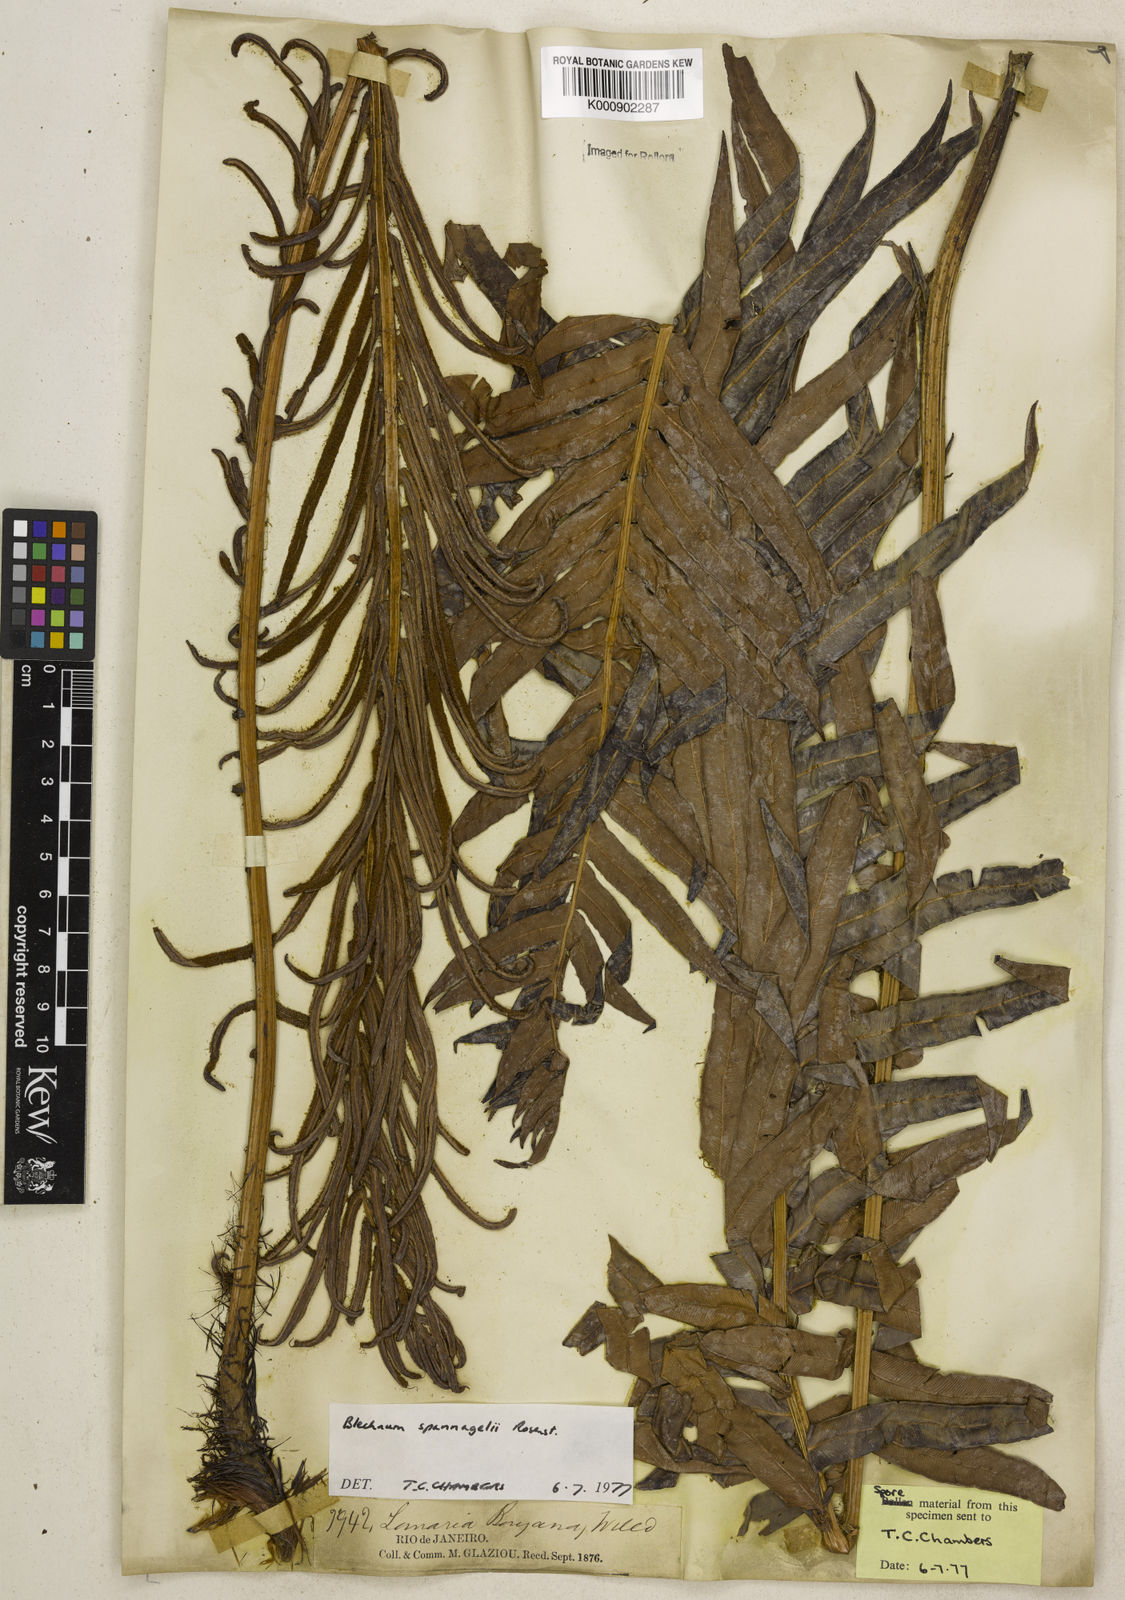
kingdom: Plantae
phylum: Tracheophyta
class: Polypodiopsida
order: Polypodiales
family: Blechnaceae
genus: Lomaria
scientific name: Lomaria spannagelii
